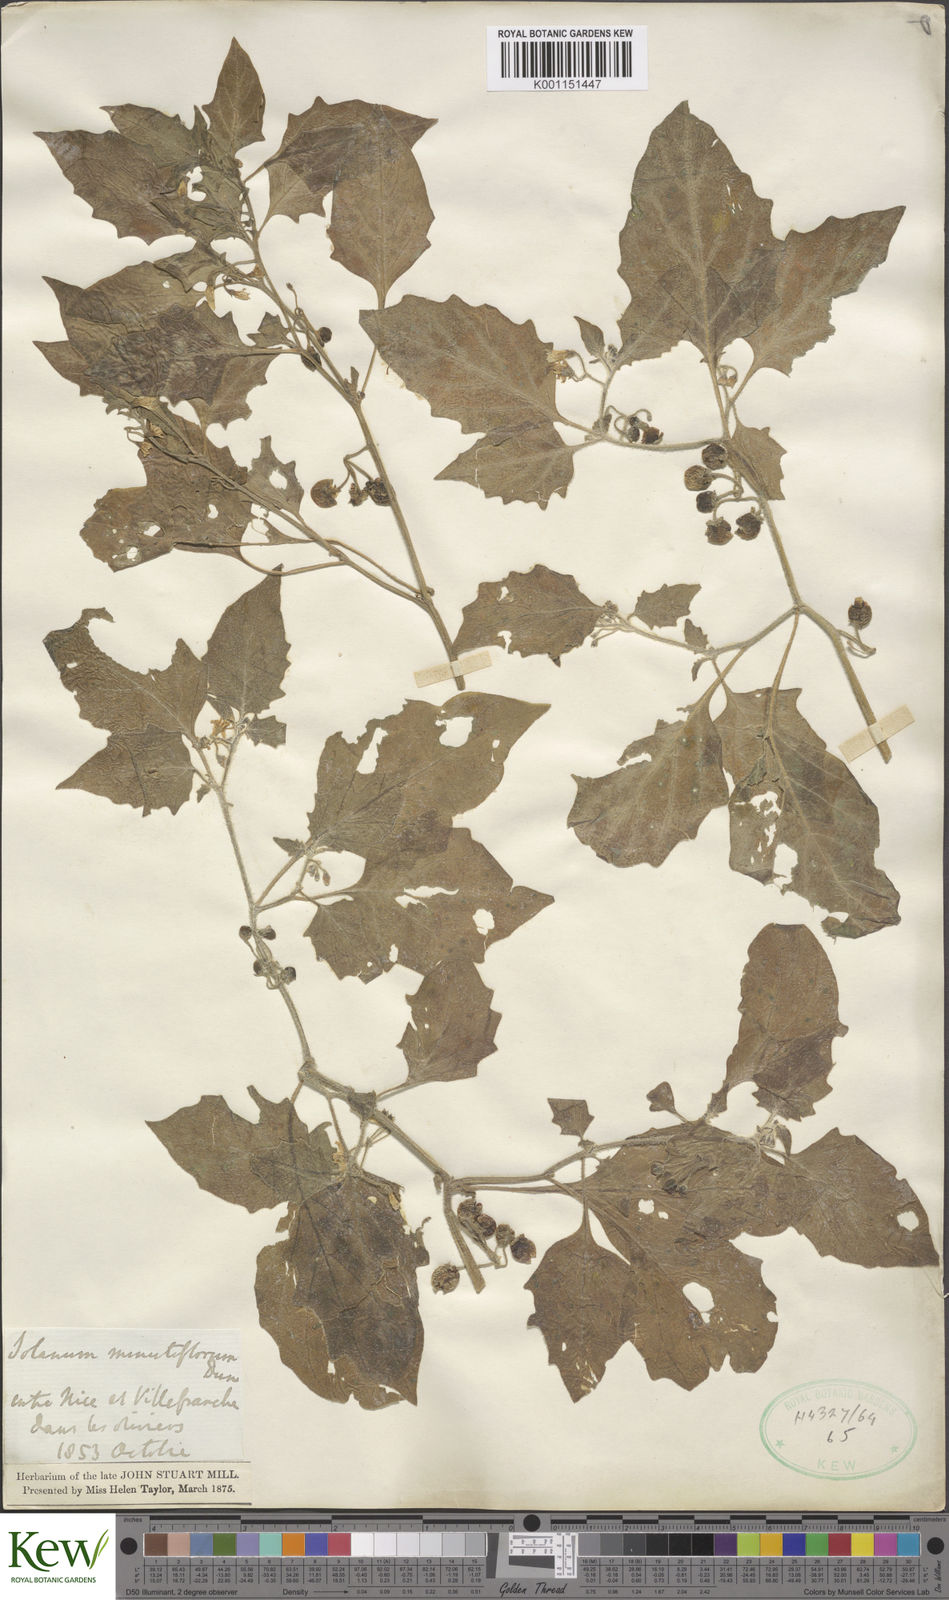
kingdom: Plantae
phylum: Tracheophyta
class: Magnoliopsida
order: Solanales
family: Solanaceae
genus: Solanum
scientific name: Solanum villosum
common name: Red nightshade
